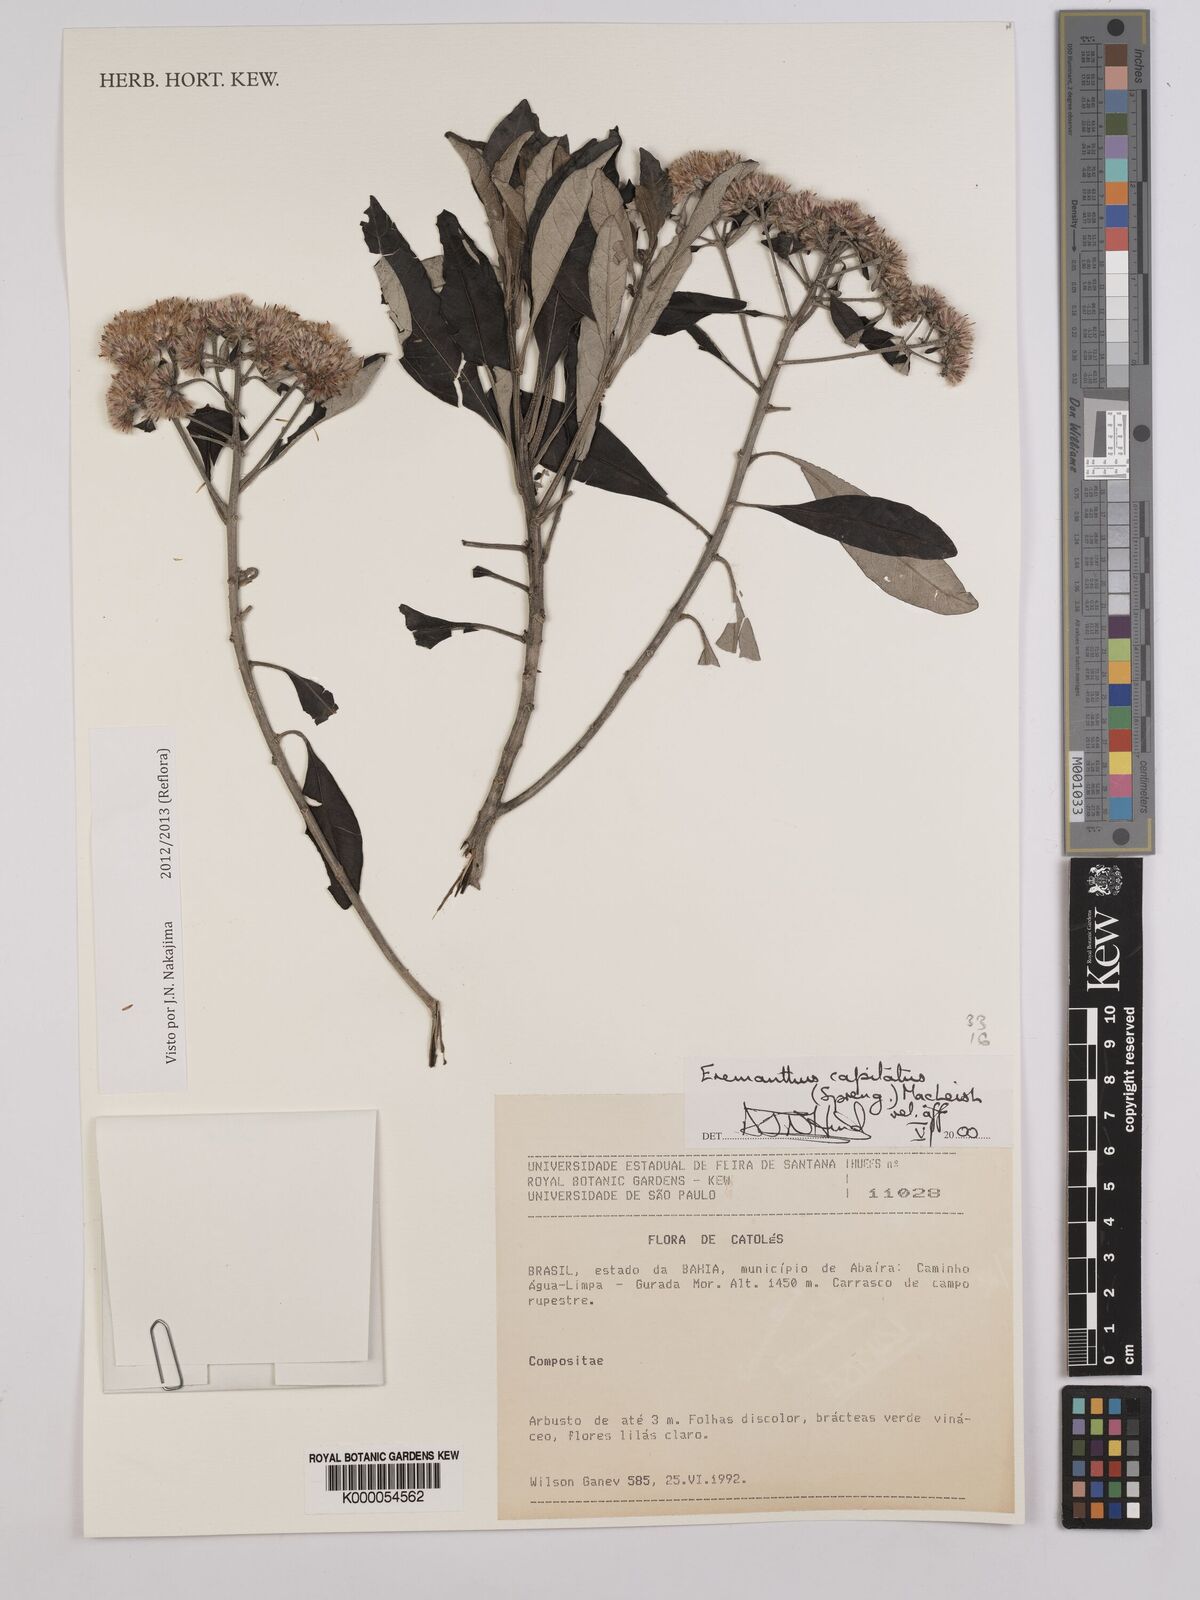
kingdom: Plantae
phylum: Tracheophyta
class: Magnoliopsida
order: Asterales
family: Asteraceae
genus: Eremanthus
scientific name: Eremanthus capitatus
